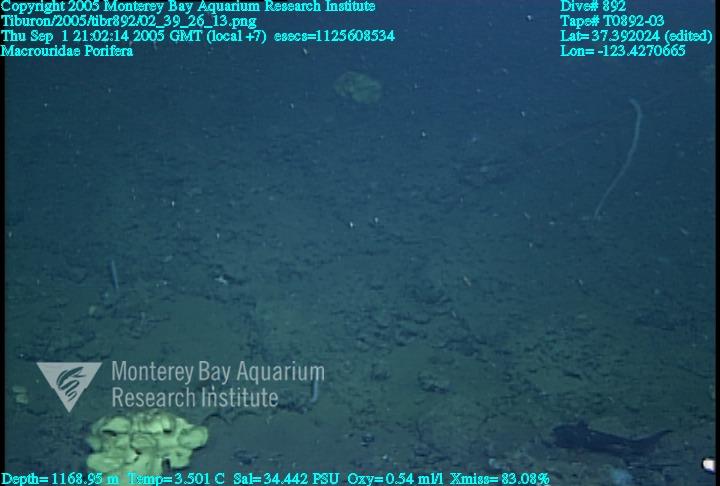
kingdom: Animalia
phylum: Porifera
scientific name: Porifera
